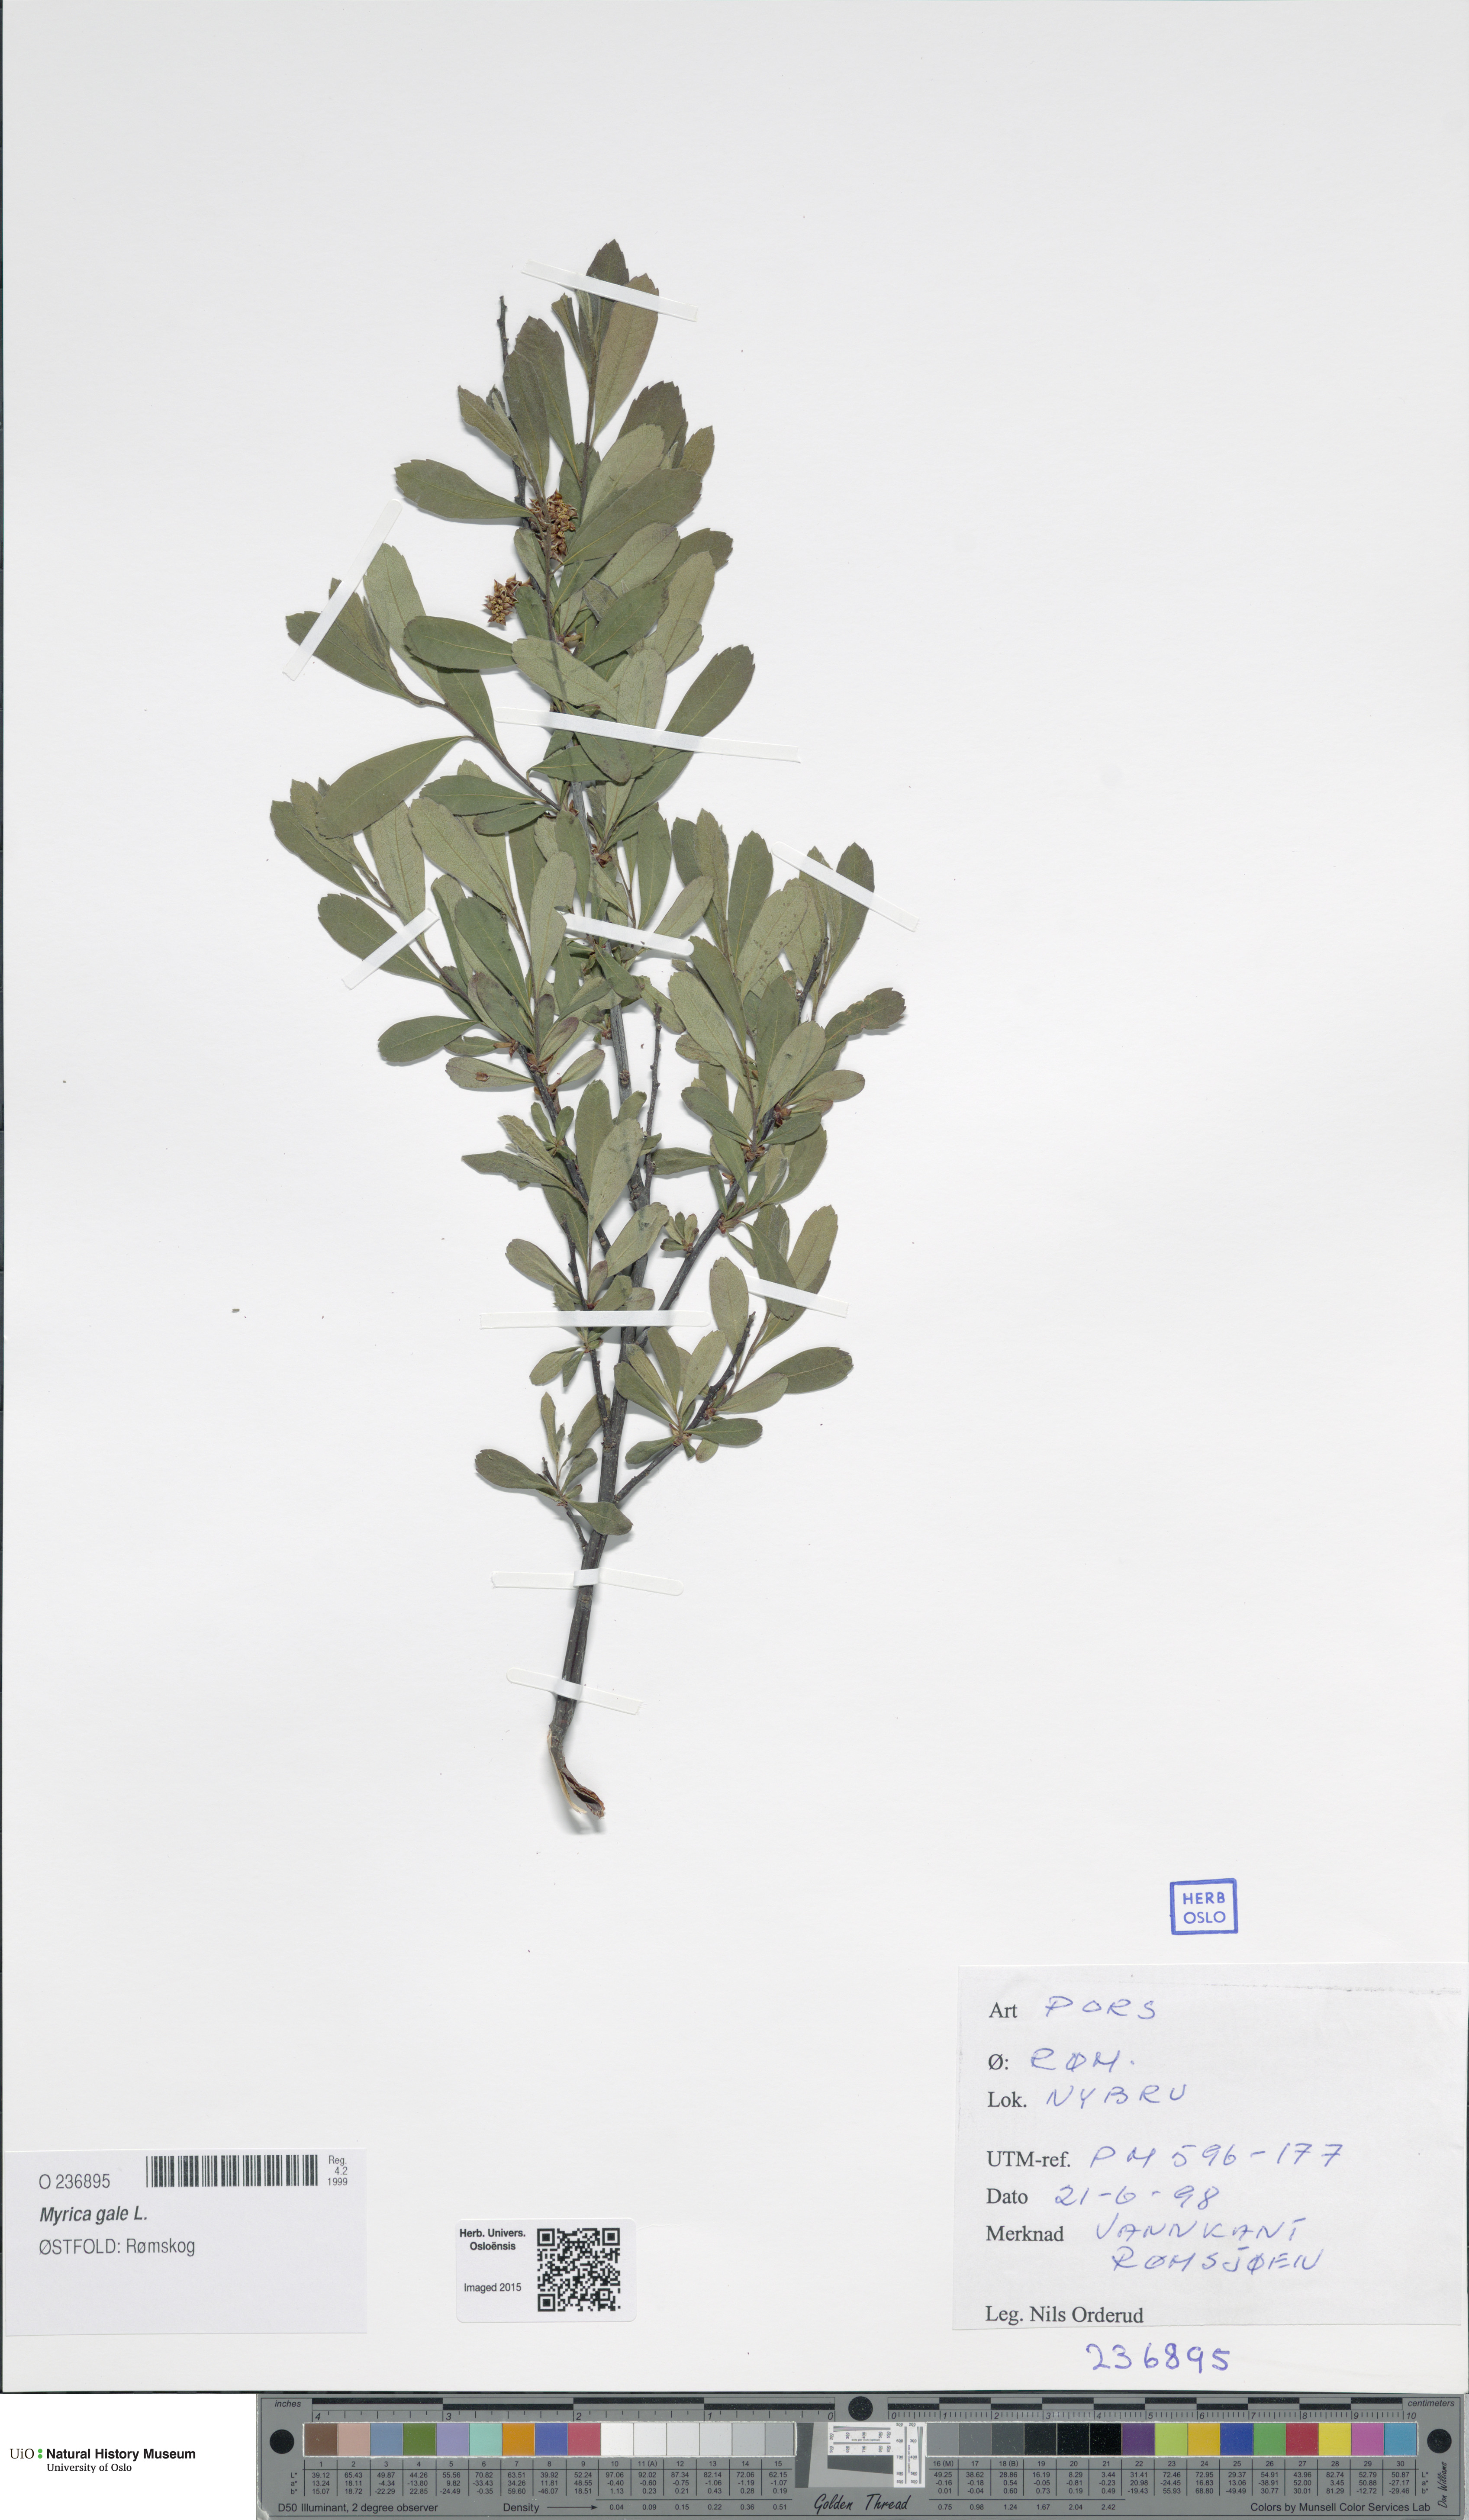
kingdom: Plantae
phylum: Tracheophyta
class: Magnoliopsida
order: Fagales
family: Myricaceae
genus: Myrica
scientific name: Myrica gale
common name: Sweet gale
